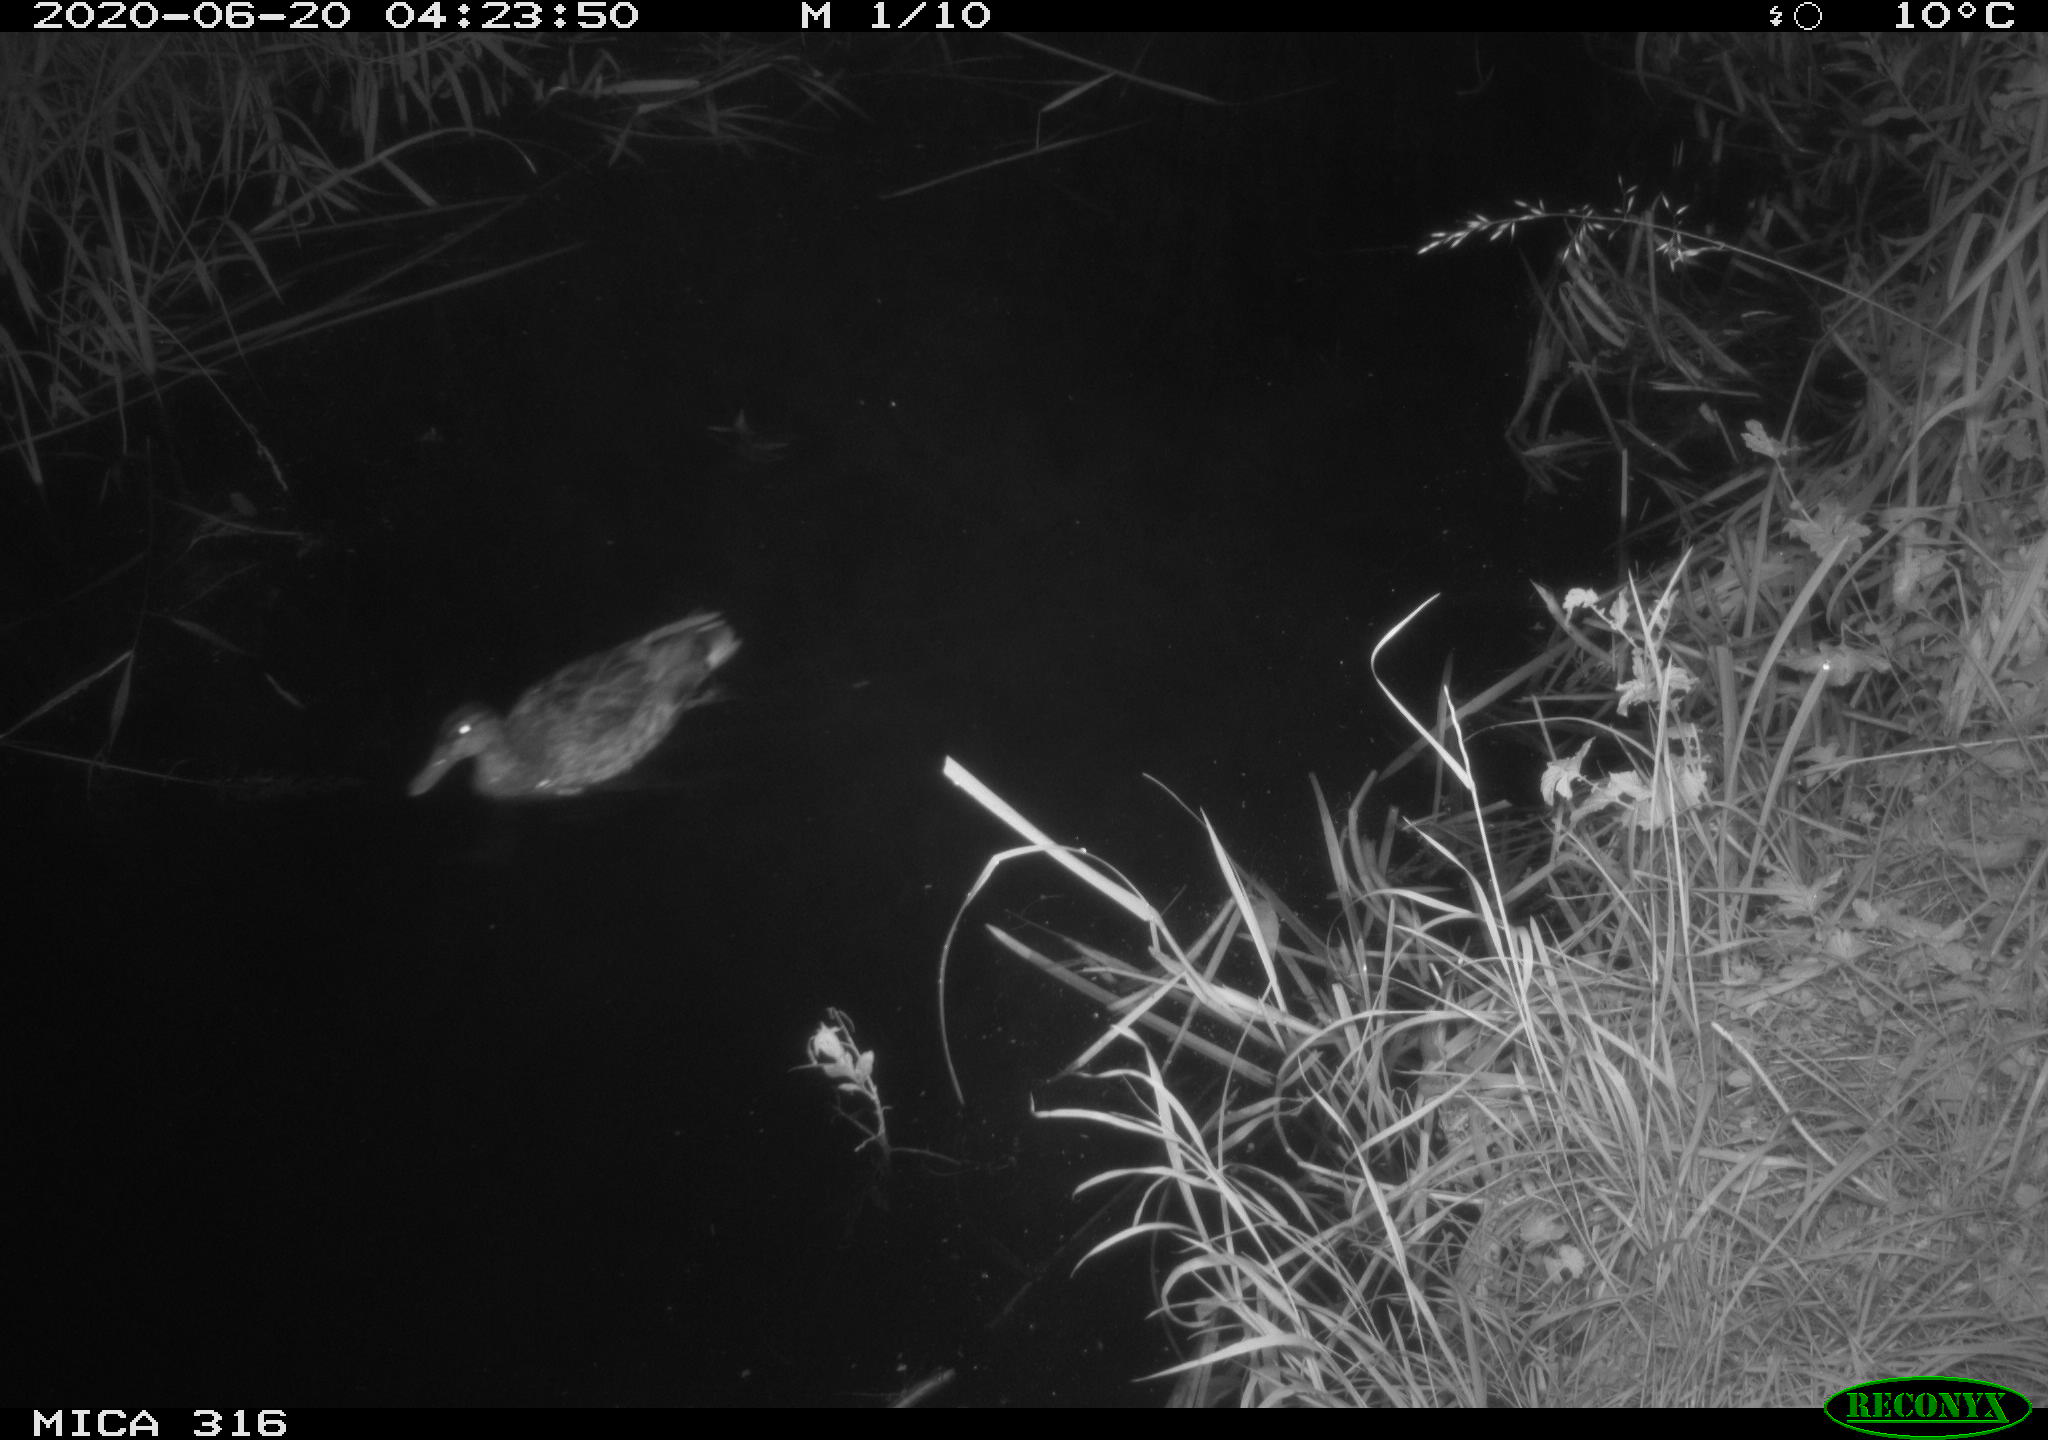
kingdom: Animalia
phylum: Chordata
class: Aves
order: Anseriformes
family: Anatidae
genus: Anas
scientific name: Anas platyrhynchos
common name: Mallard
